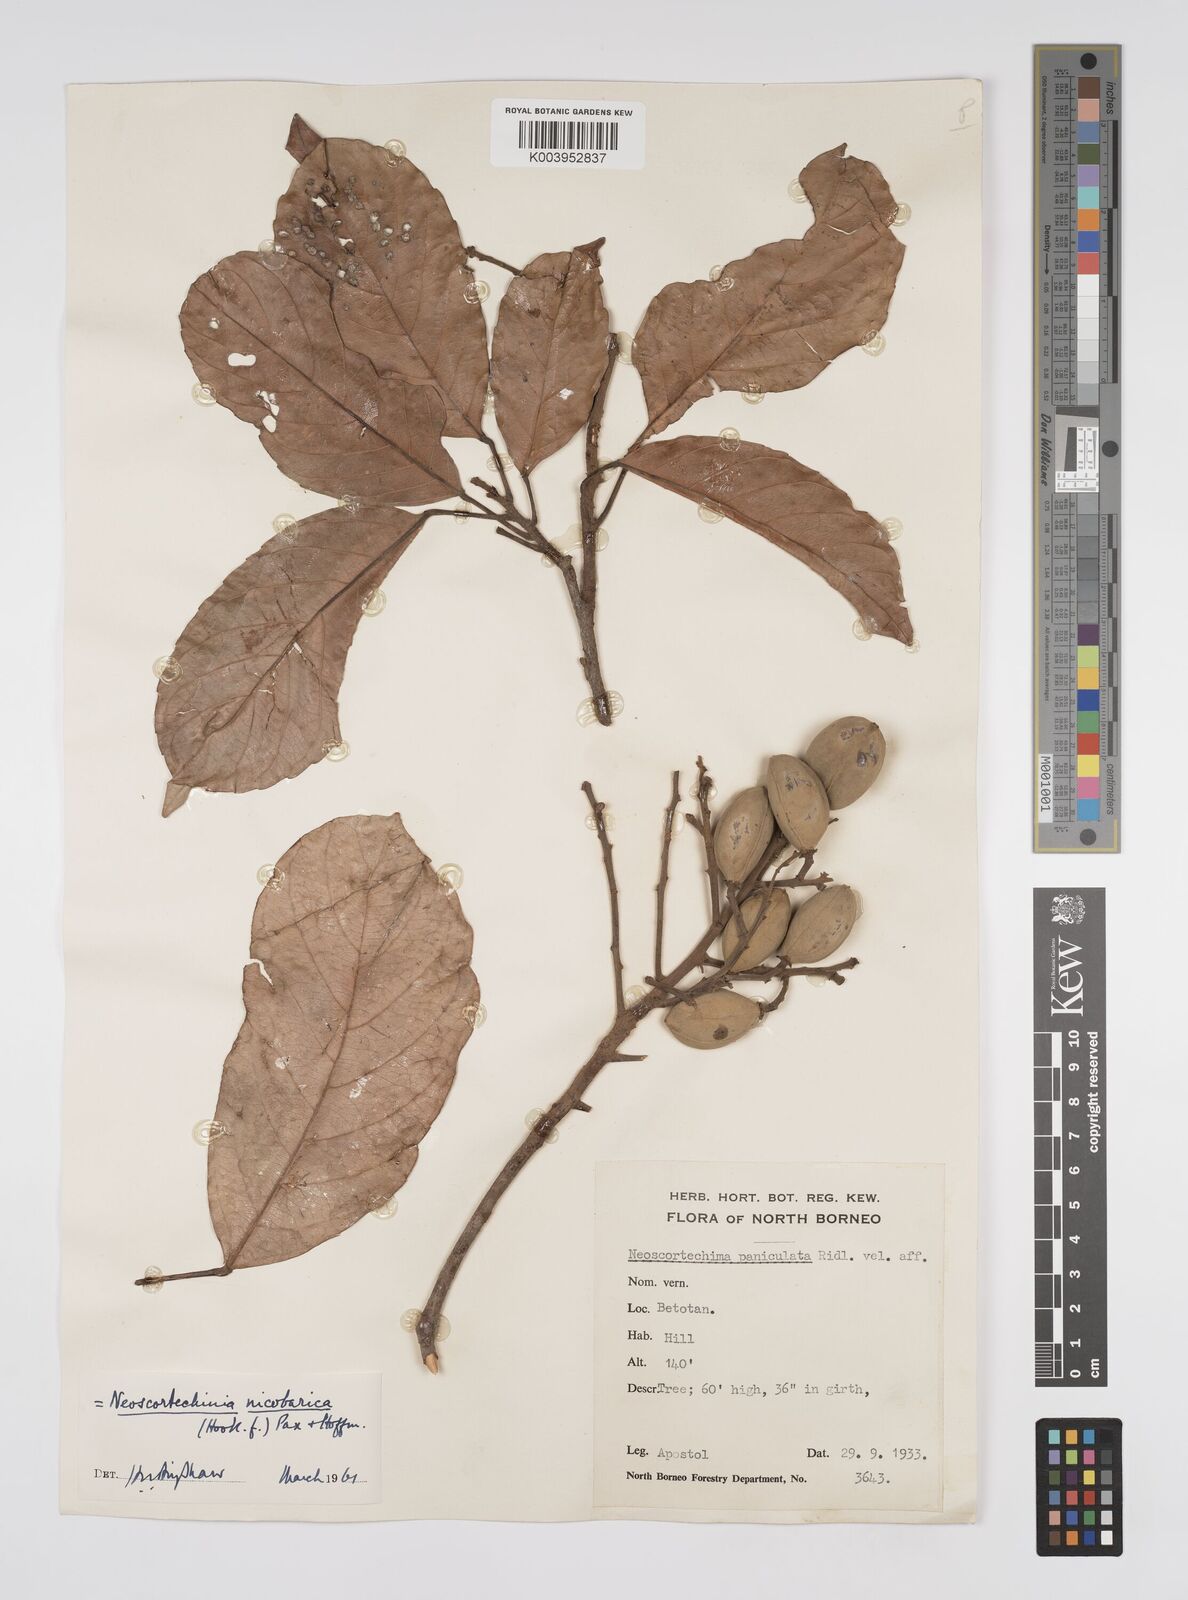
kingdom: Plantae
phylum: Tracheophyta
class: Magnoliopsida
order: Malpighiales
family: Euphorbiaceae
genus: Neoscortechinia
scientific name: Neoscortechinia nicobarica
